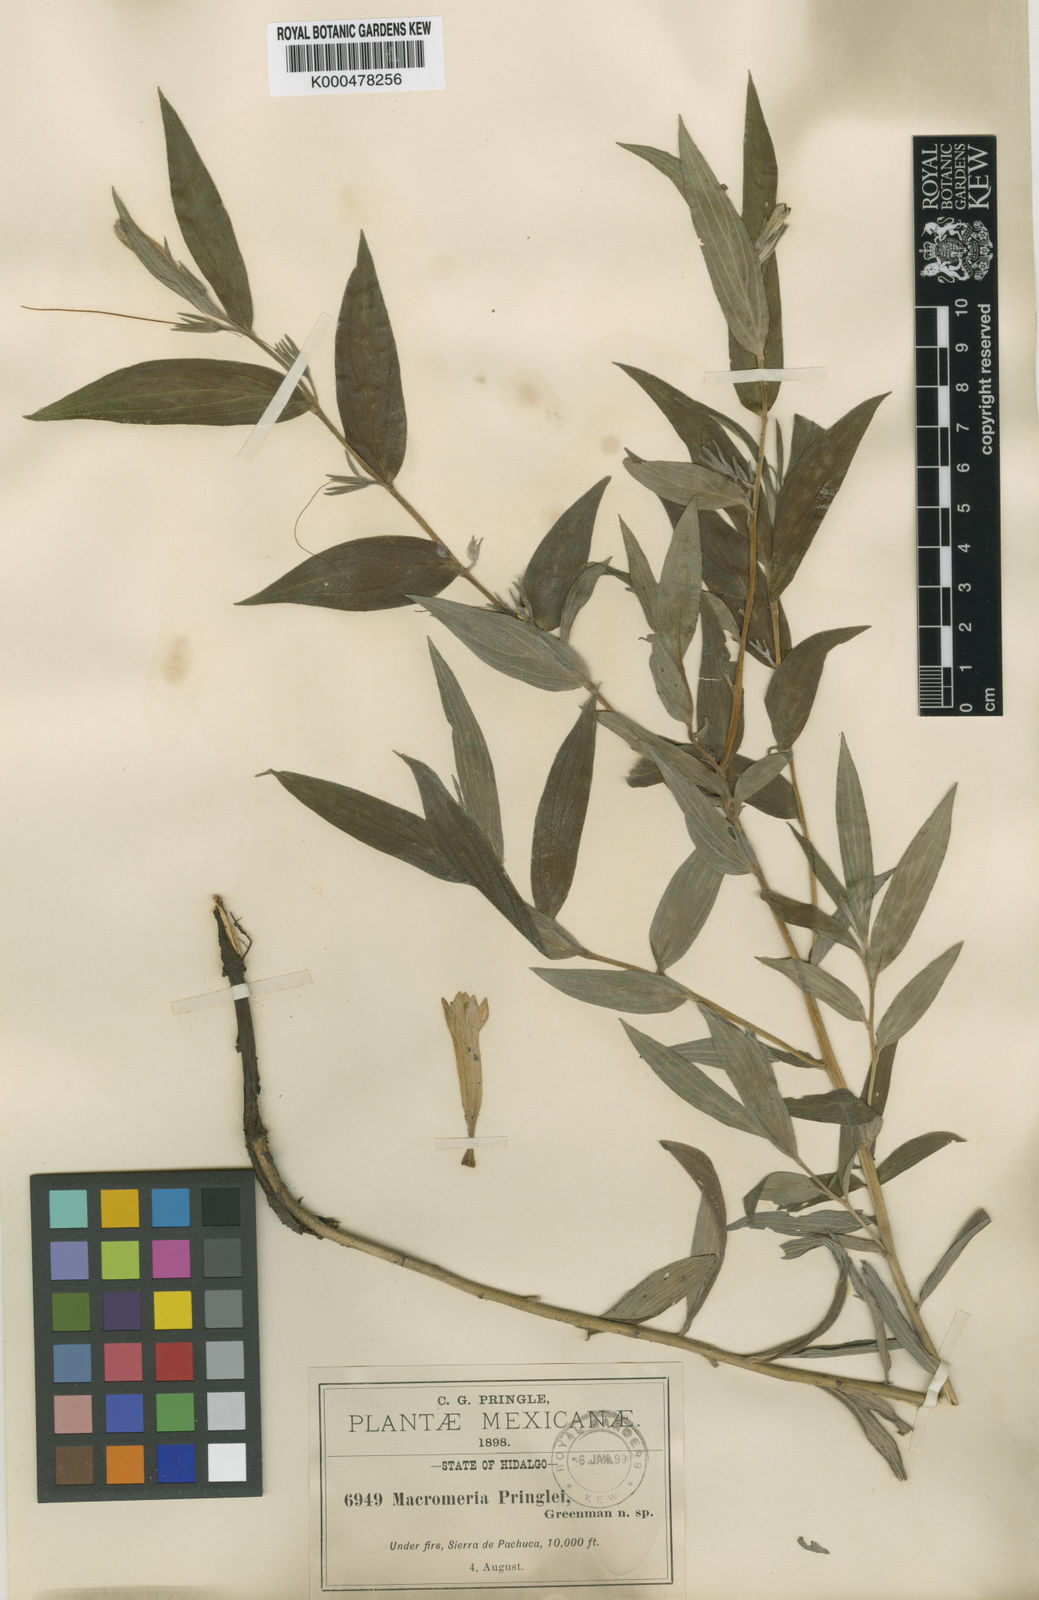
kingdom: Plantae
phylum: Tracheophyta
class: Magnoliopsida
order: Boraginales
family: Boraginaceae
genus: Lithospermum
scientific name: Lithospermum rzedowskii
